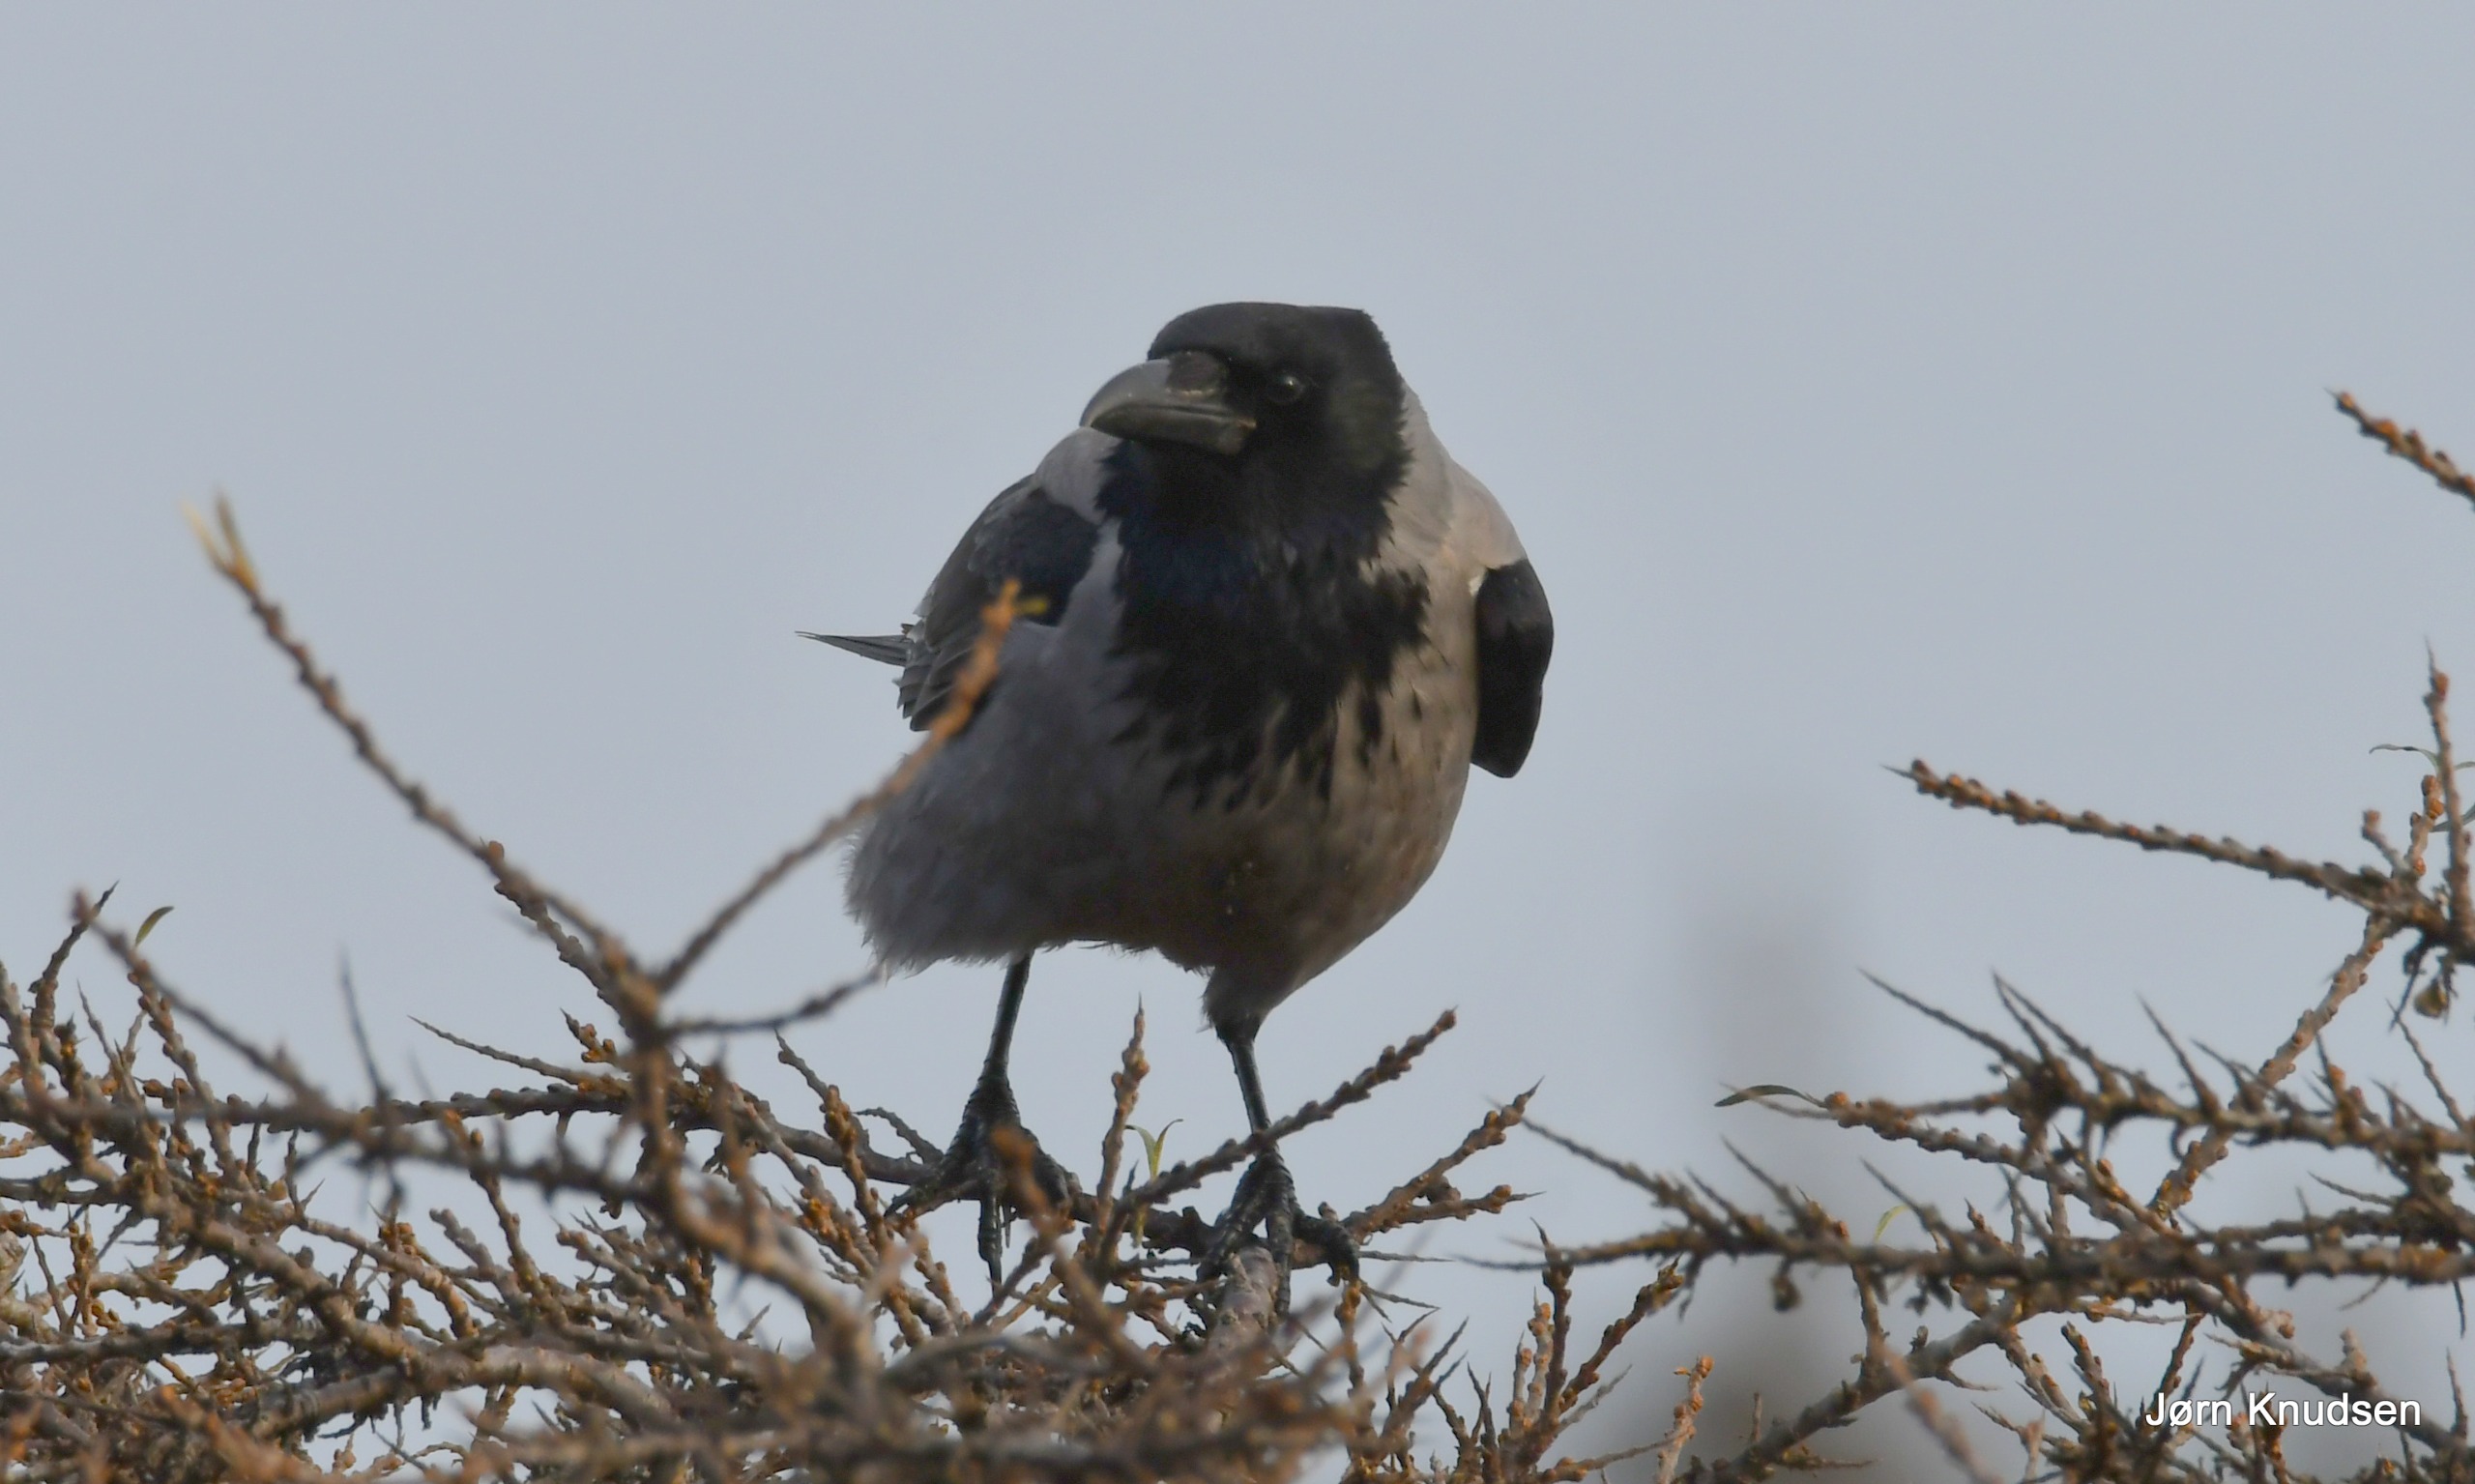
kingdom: Animalia
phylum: Chordata
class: Aves
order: Passeriformes
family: Corvidae
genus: Corvus
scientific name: Corvus cornix
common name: Gråkrage
